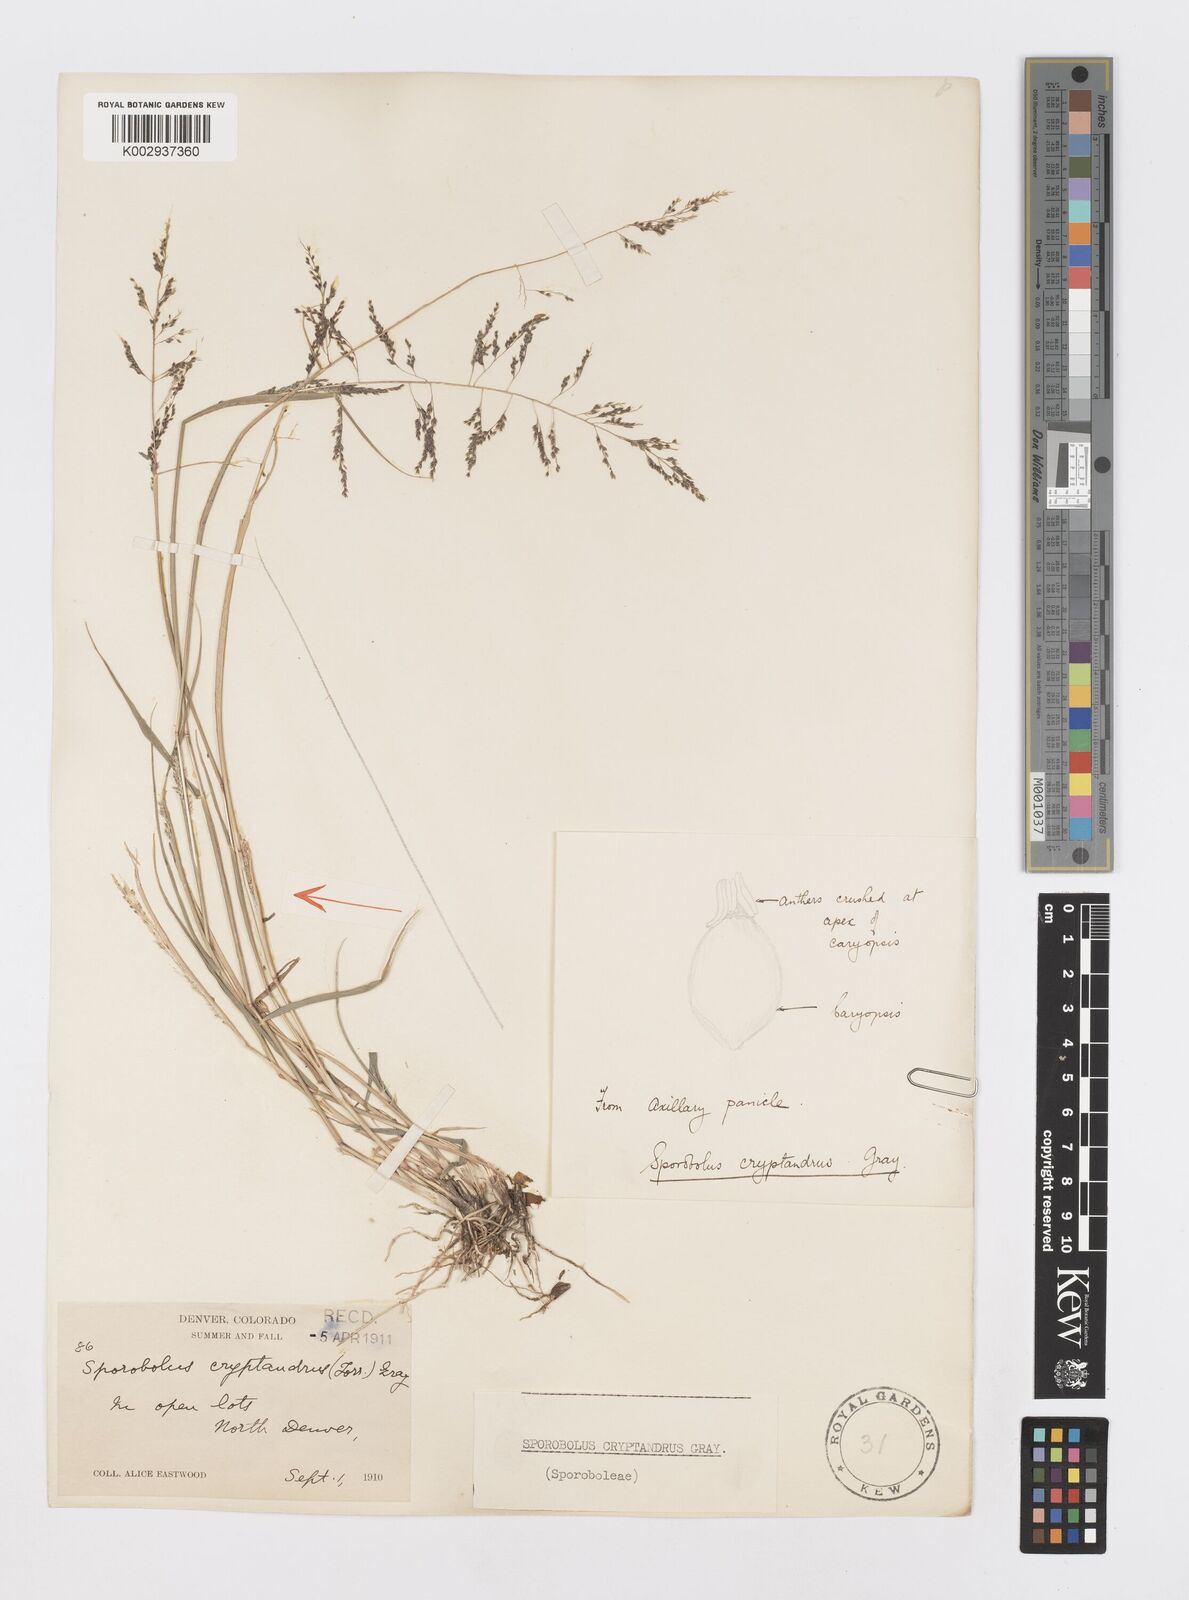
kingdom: Plantae
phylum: Tracheophyta
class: Liliopsida
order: Poales
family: Poaceae
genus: Sporobolus
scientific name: Sporobolus cryptandrus
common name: Sand dropseed
